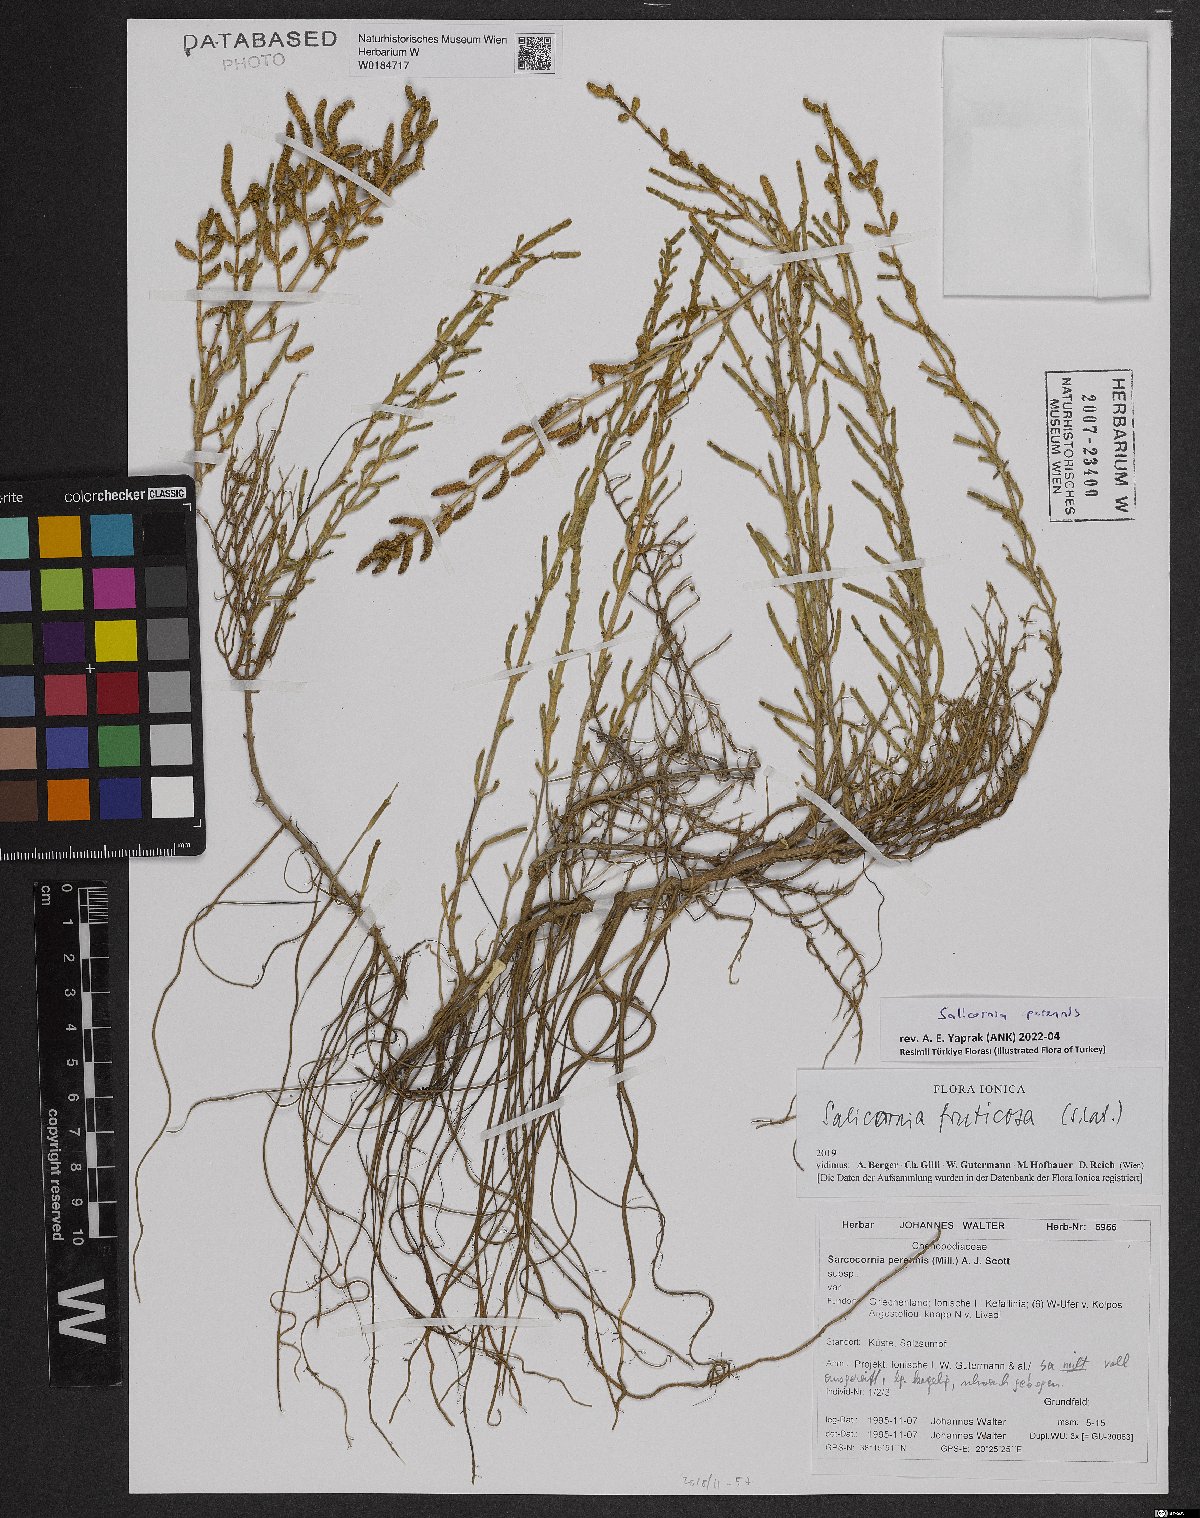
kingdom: Plantae
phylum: Tracheophyta
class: Magnoliopsida
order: Caryophyllales
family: Amaranthaceae
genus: Salicornia
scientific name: Salicornia perennis
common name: Chicken claws
